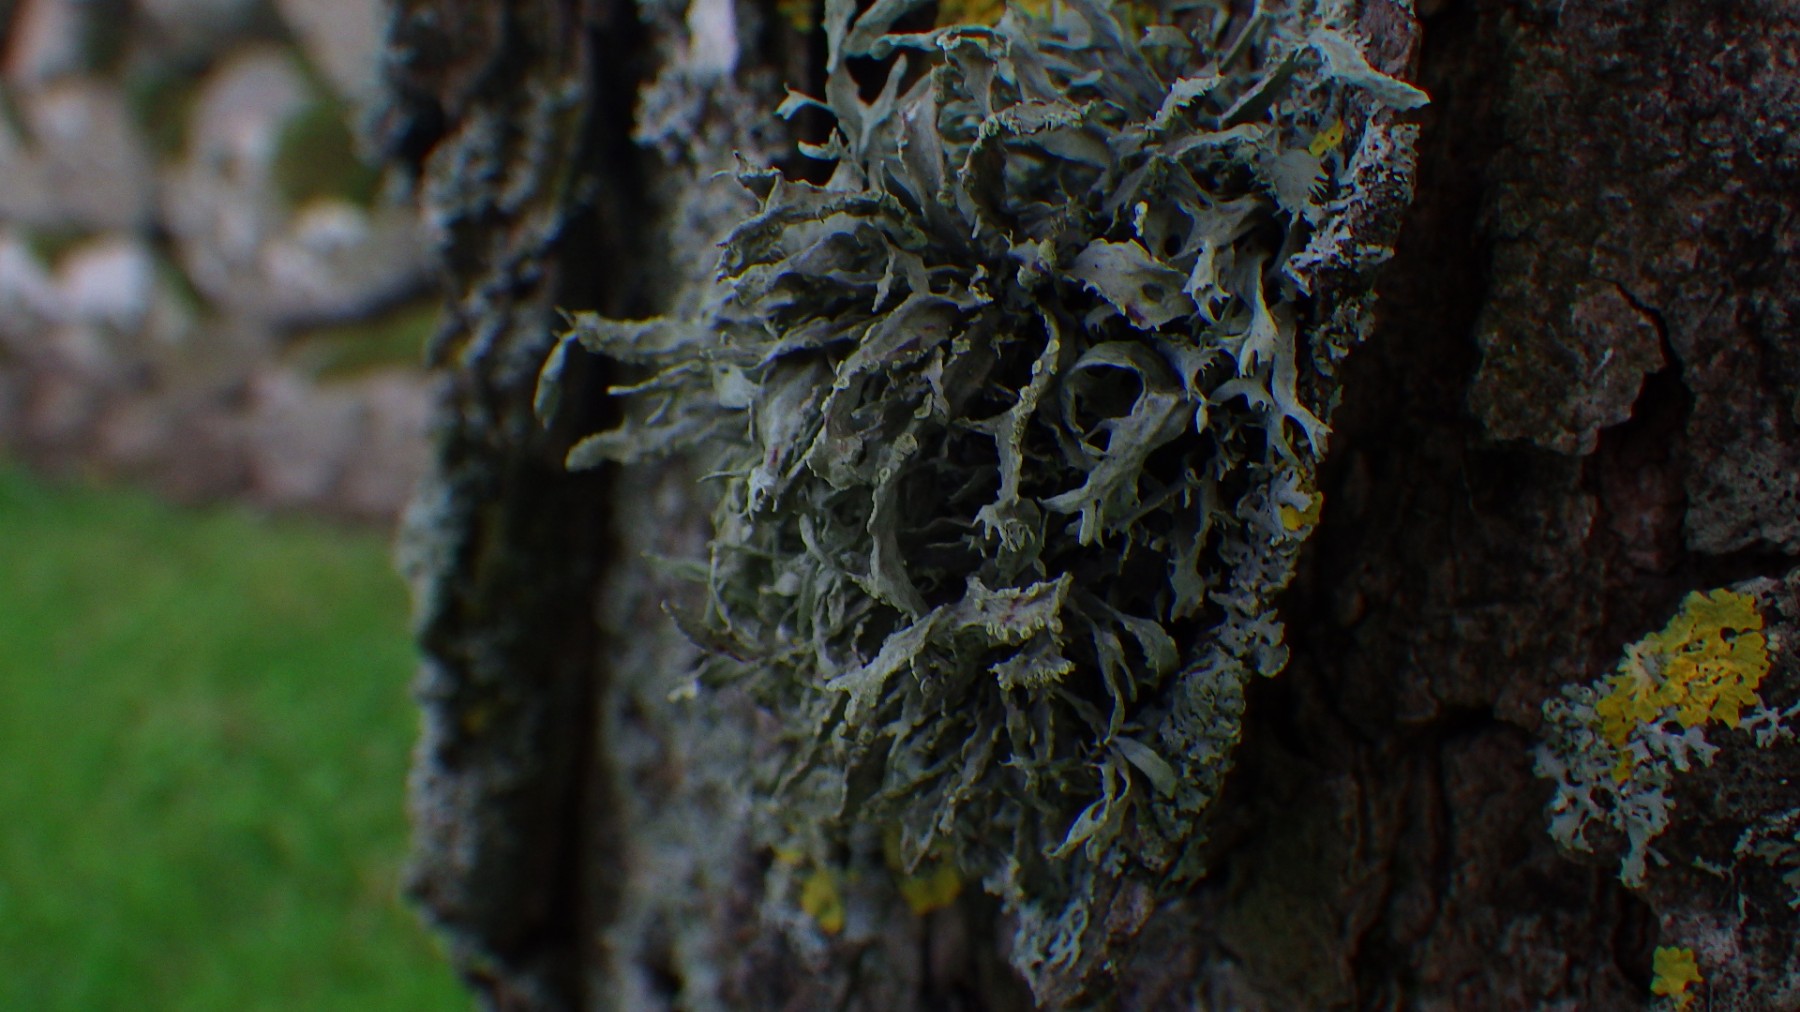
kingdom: Fungi
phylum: Ascomycota
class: Lecanoromycetes
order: Lecanorales
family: Ramalinaceae
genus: Ramalina
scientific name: Ramalina farinacea
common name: melet grenlav
